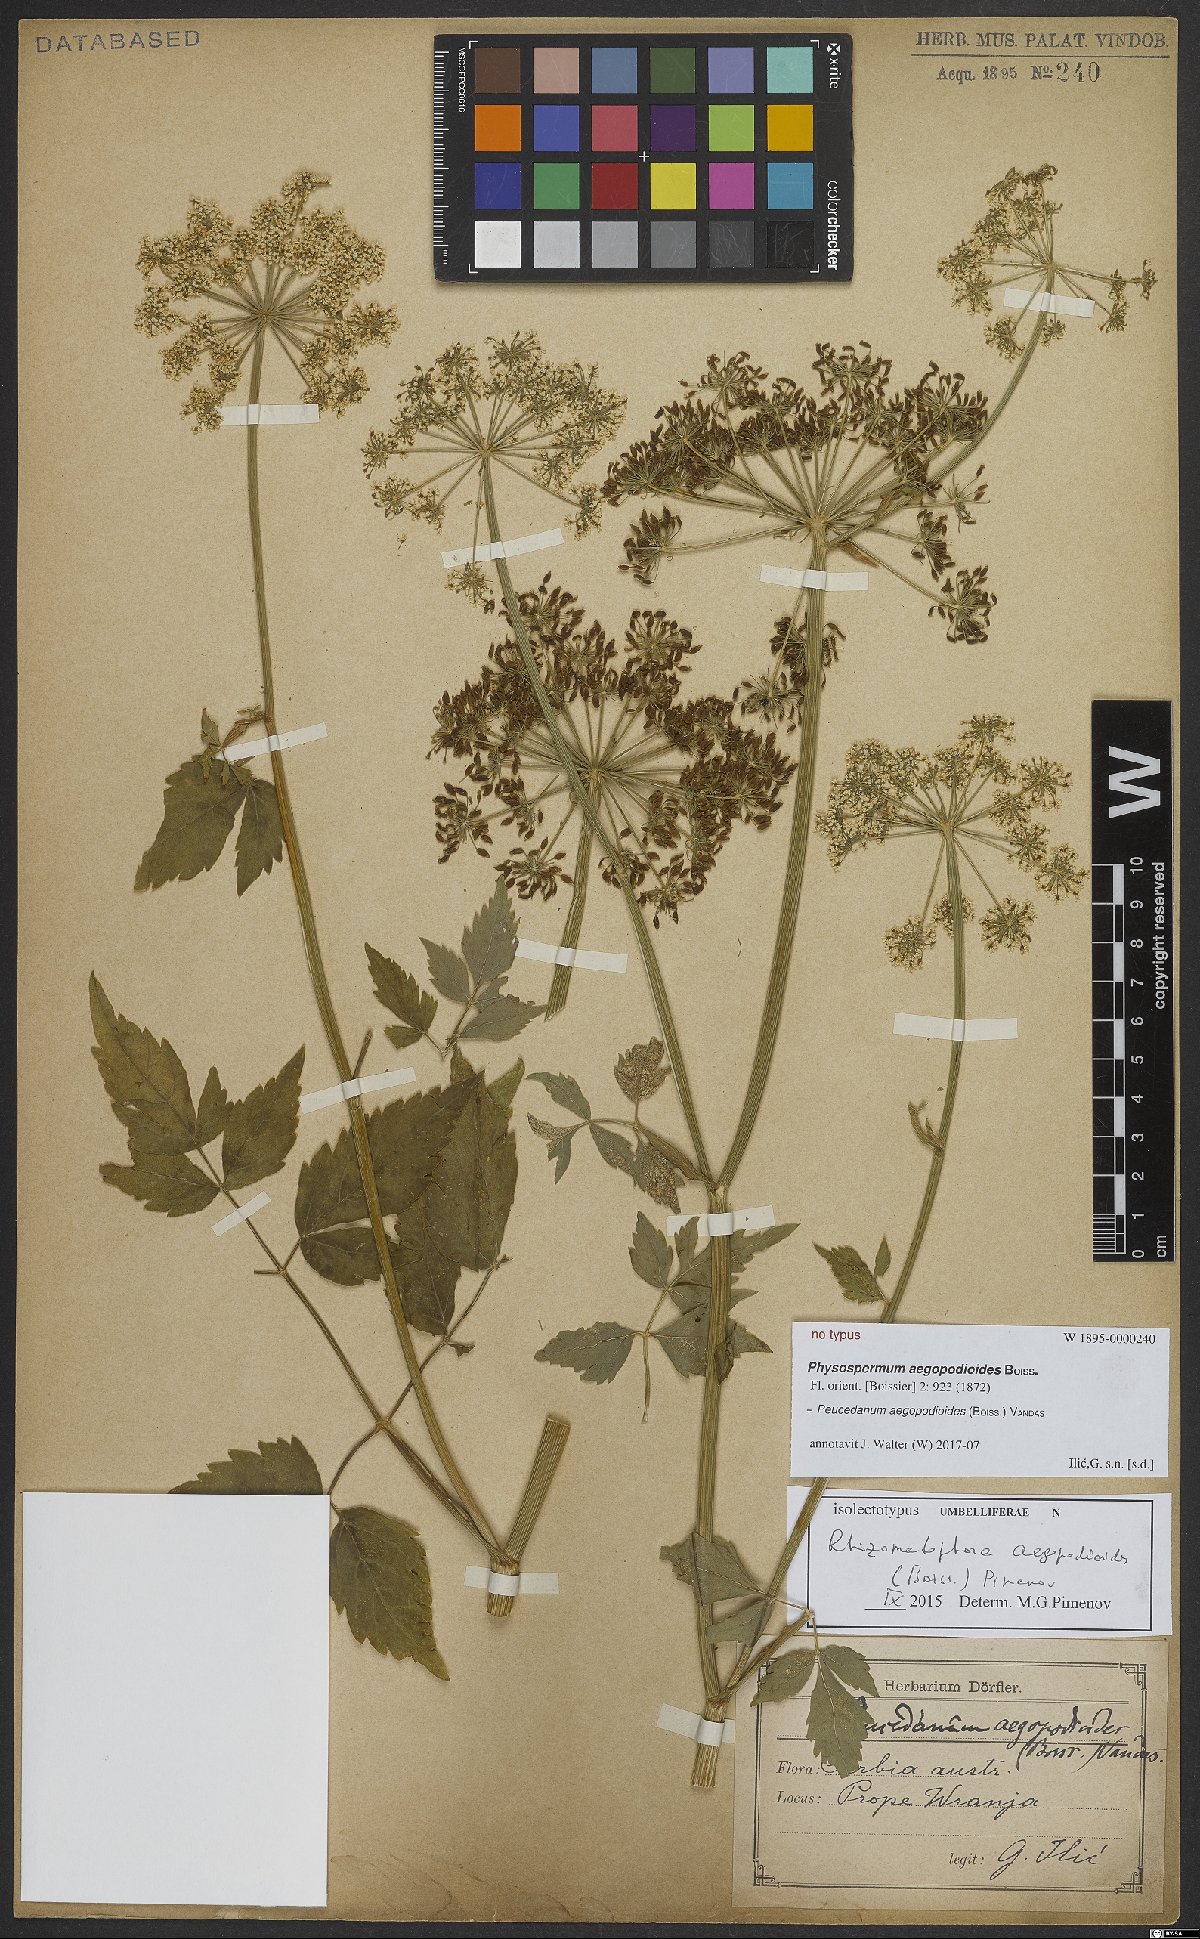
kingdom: Plantae
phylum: Tracheophyta
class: Magnoliopsida
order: Apiales
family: Apiaceae
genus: Rhizomatophora
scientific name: Rhizomatophora aegopodioides
